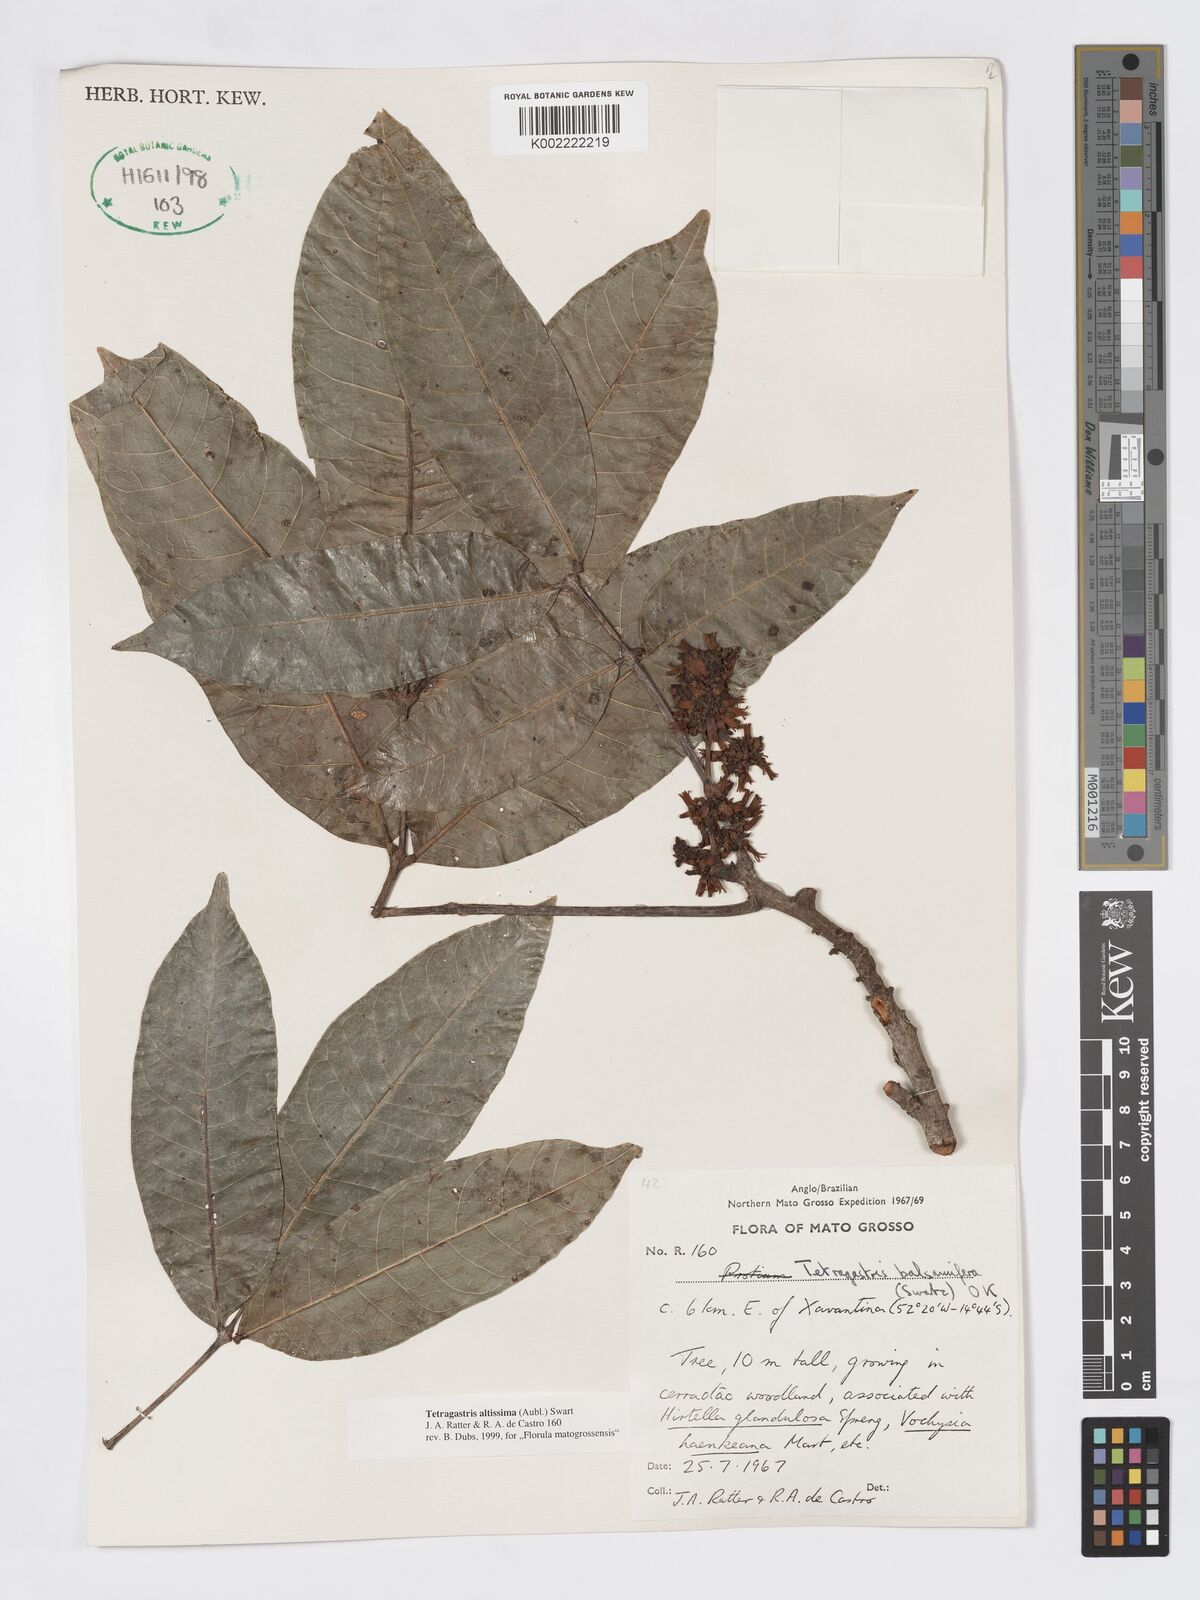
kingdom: Plantae
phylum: Tracheophyta
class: Magnoliopsida
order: Sapindales
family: Burseraceae
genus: Tetragastris
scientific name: Tetragastris altissima
